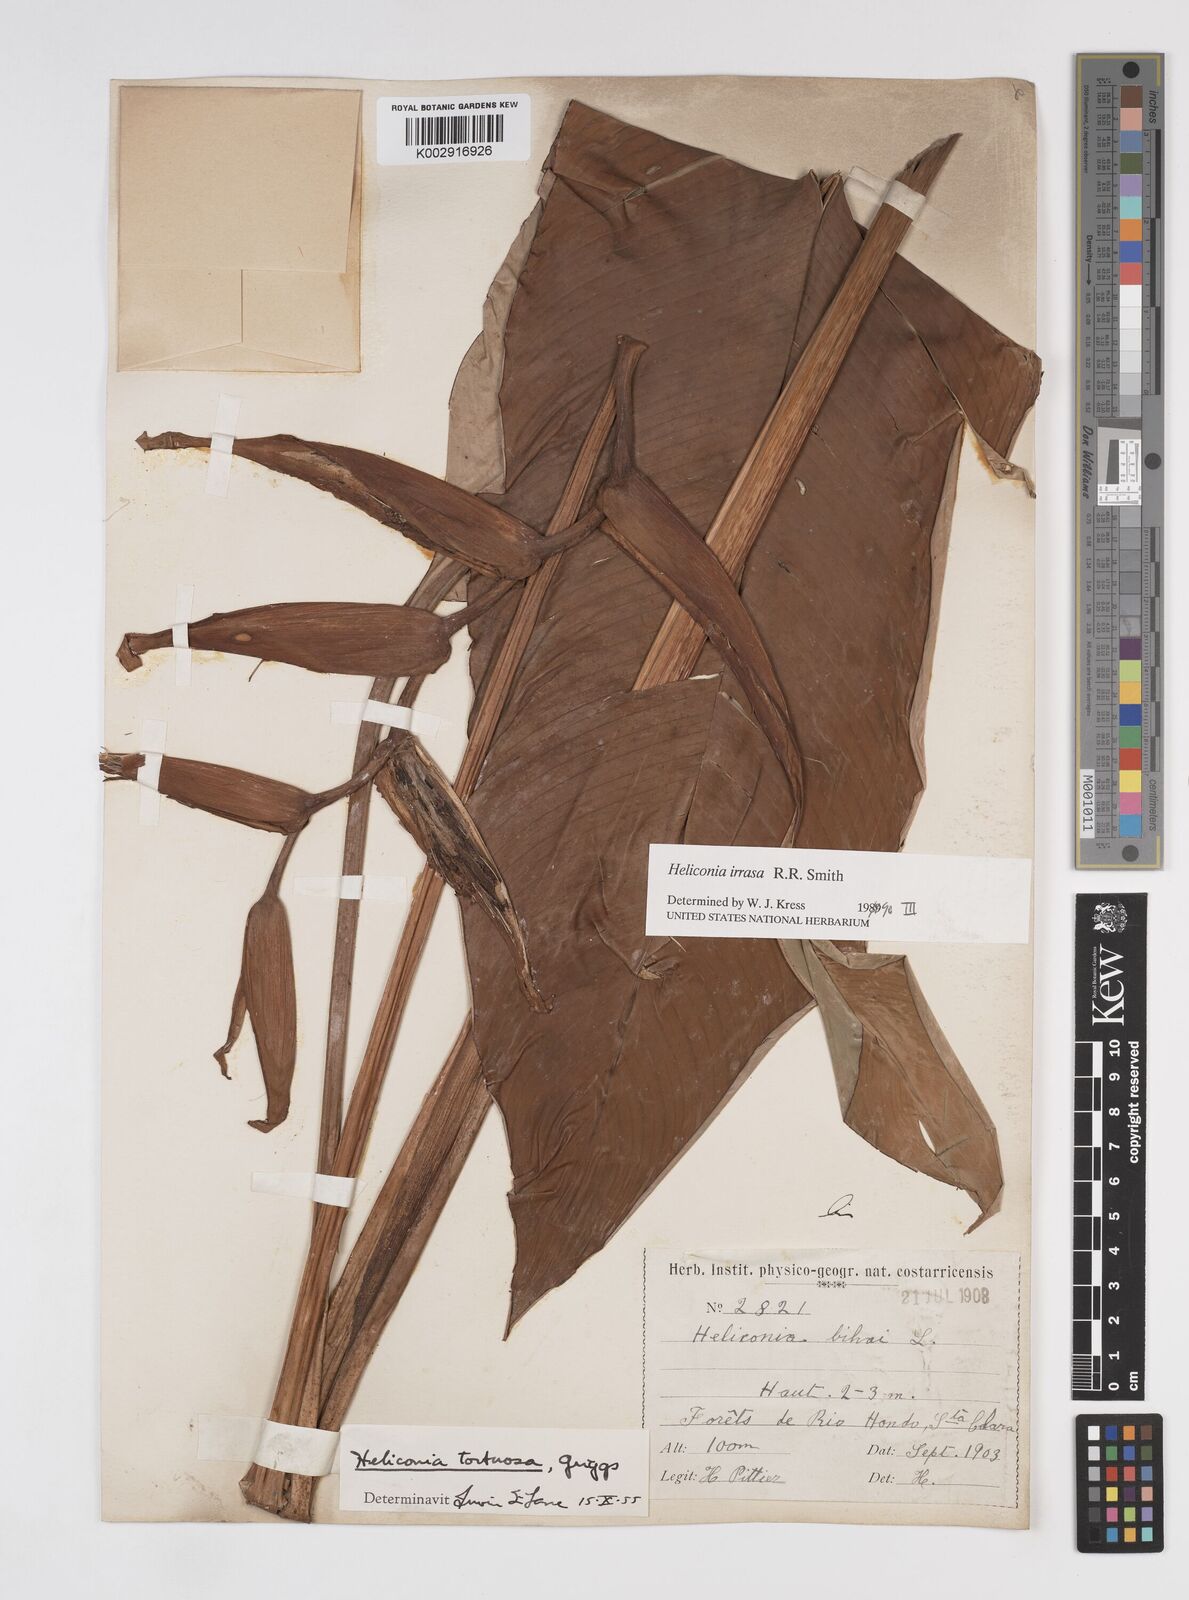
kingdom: Plantae
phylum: Tracheophyta
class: Liliopsida
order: Zingiberales
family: Heliconiaceae
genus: Heliconia
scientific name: Heliconia irrasa
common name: Wild plantain
